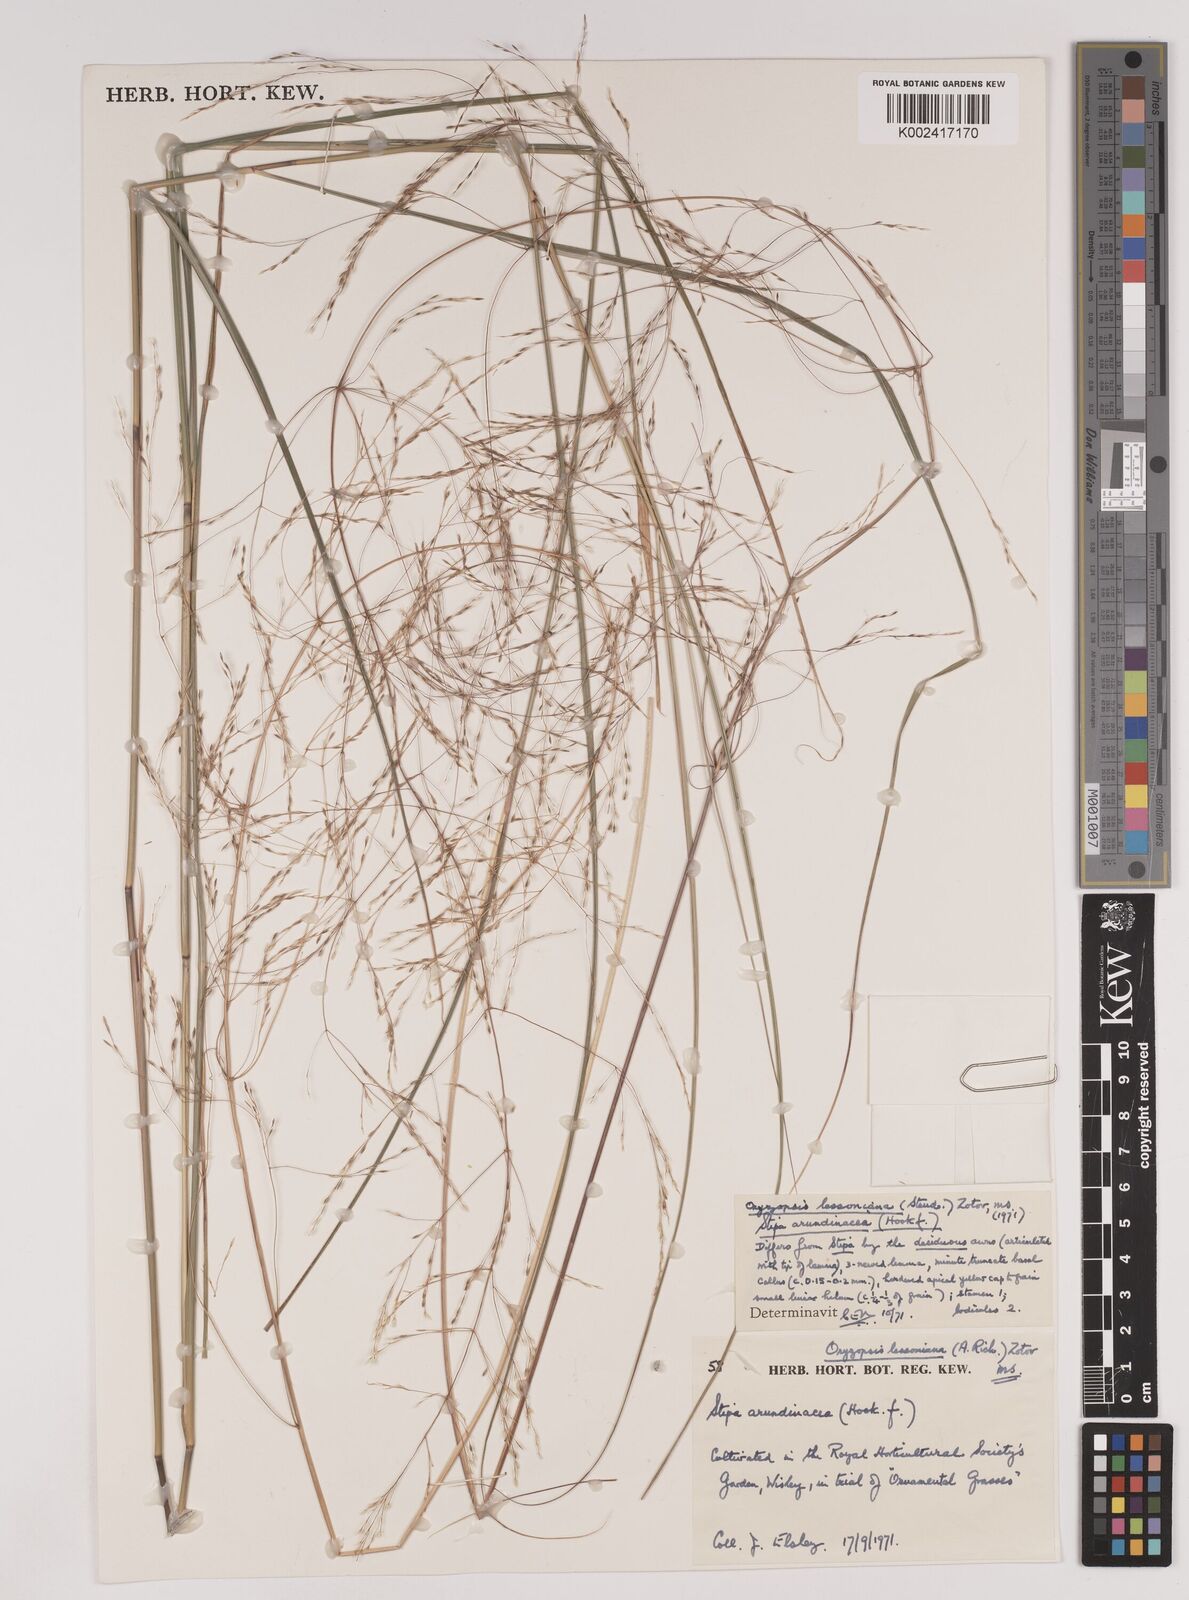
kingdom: Plantae
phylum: Tracheophyta
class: Liliopsida
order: Poales
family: Poaceae
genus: Stipa
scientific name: Stipa
